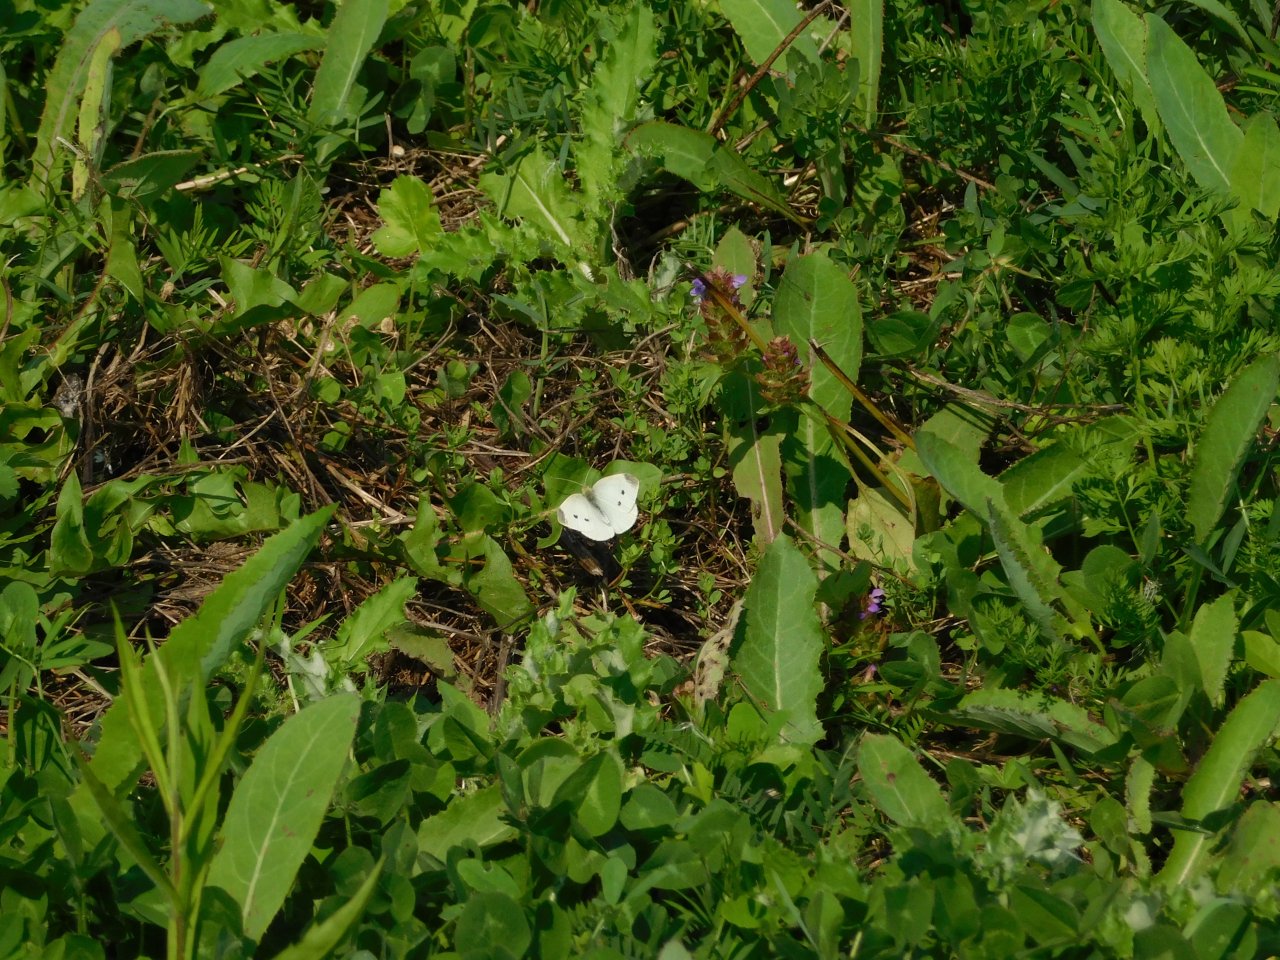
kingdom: Animalia
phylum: Arthropoda
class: Insecta
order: Lepidoptera
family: Pieridae
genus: Pieris
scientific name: Pieris rapae
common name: Cabbage White
